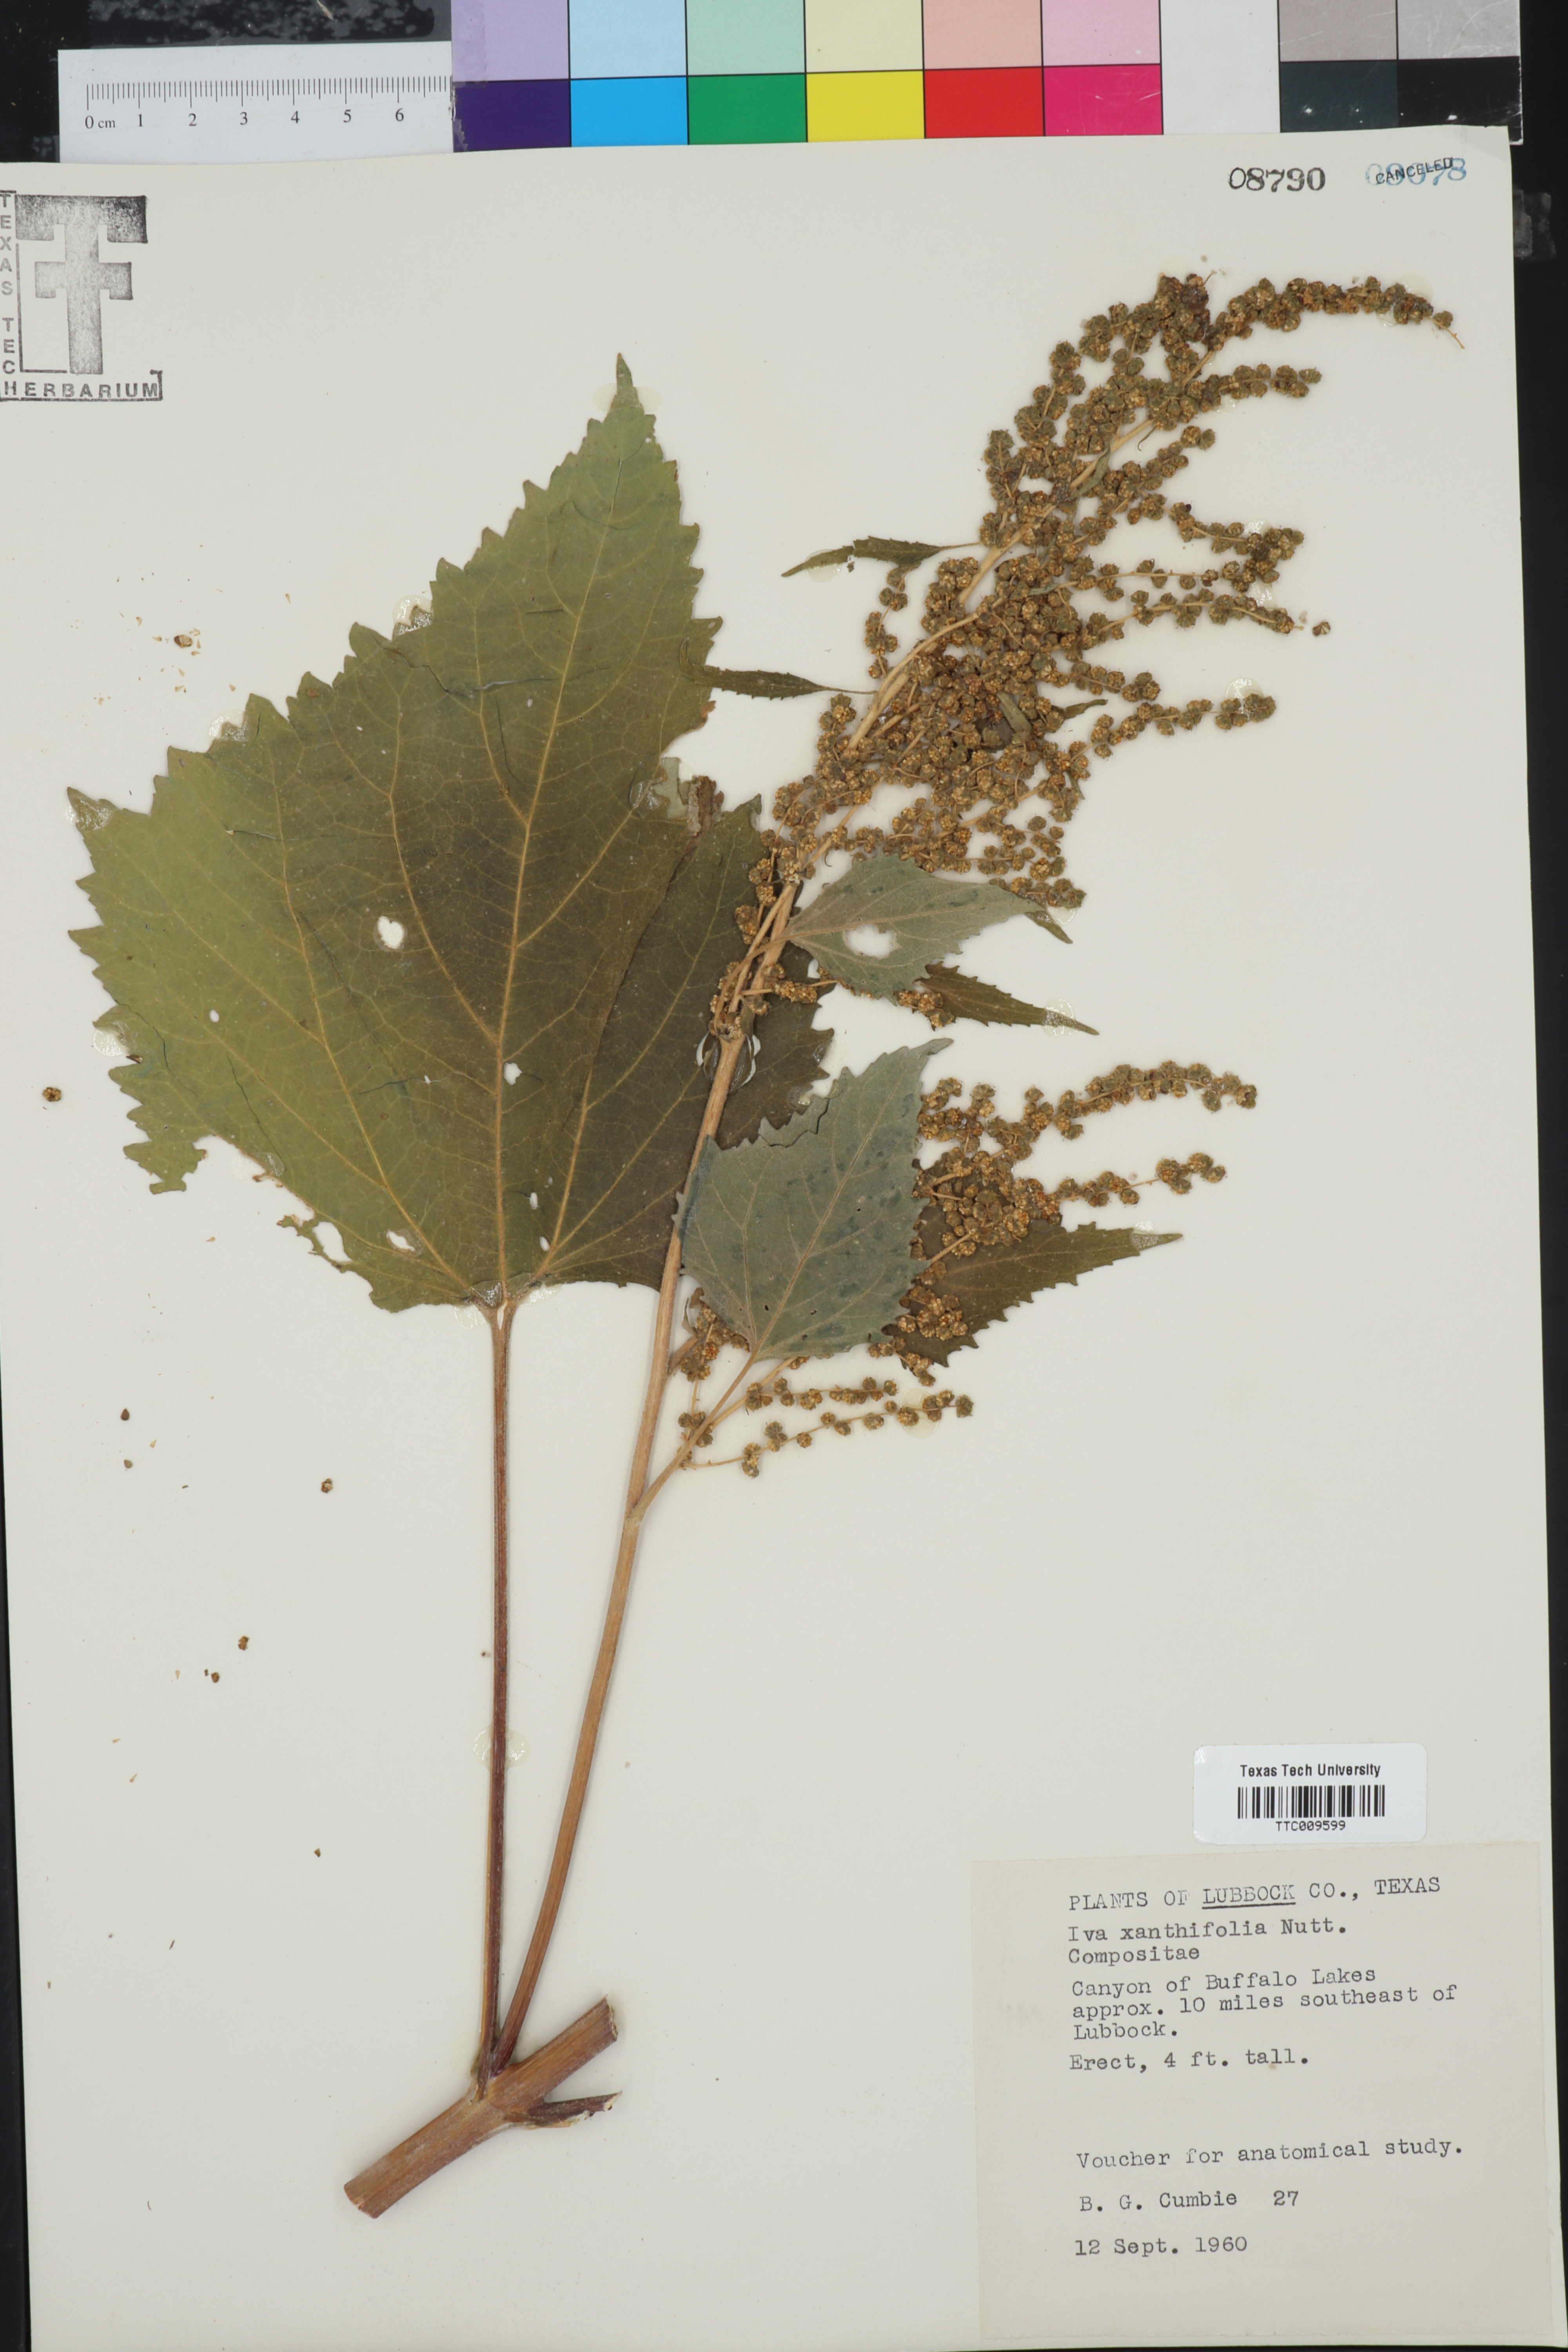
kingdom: Plantae
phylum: Tracheophyta
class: Magnoliopsida
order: Asterales
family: Asteraceae
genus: Cyclachaena
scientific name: Cyclachaena xanthiifolia
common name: Giant sumpweed
